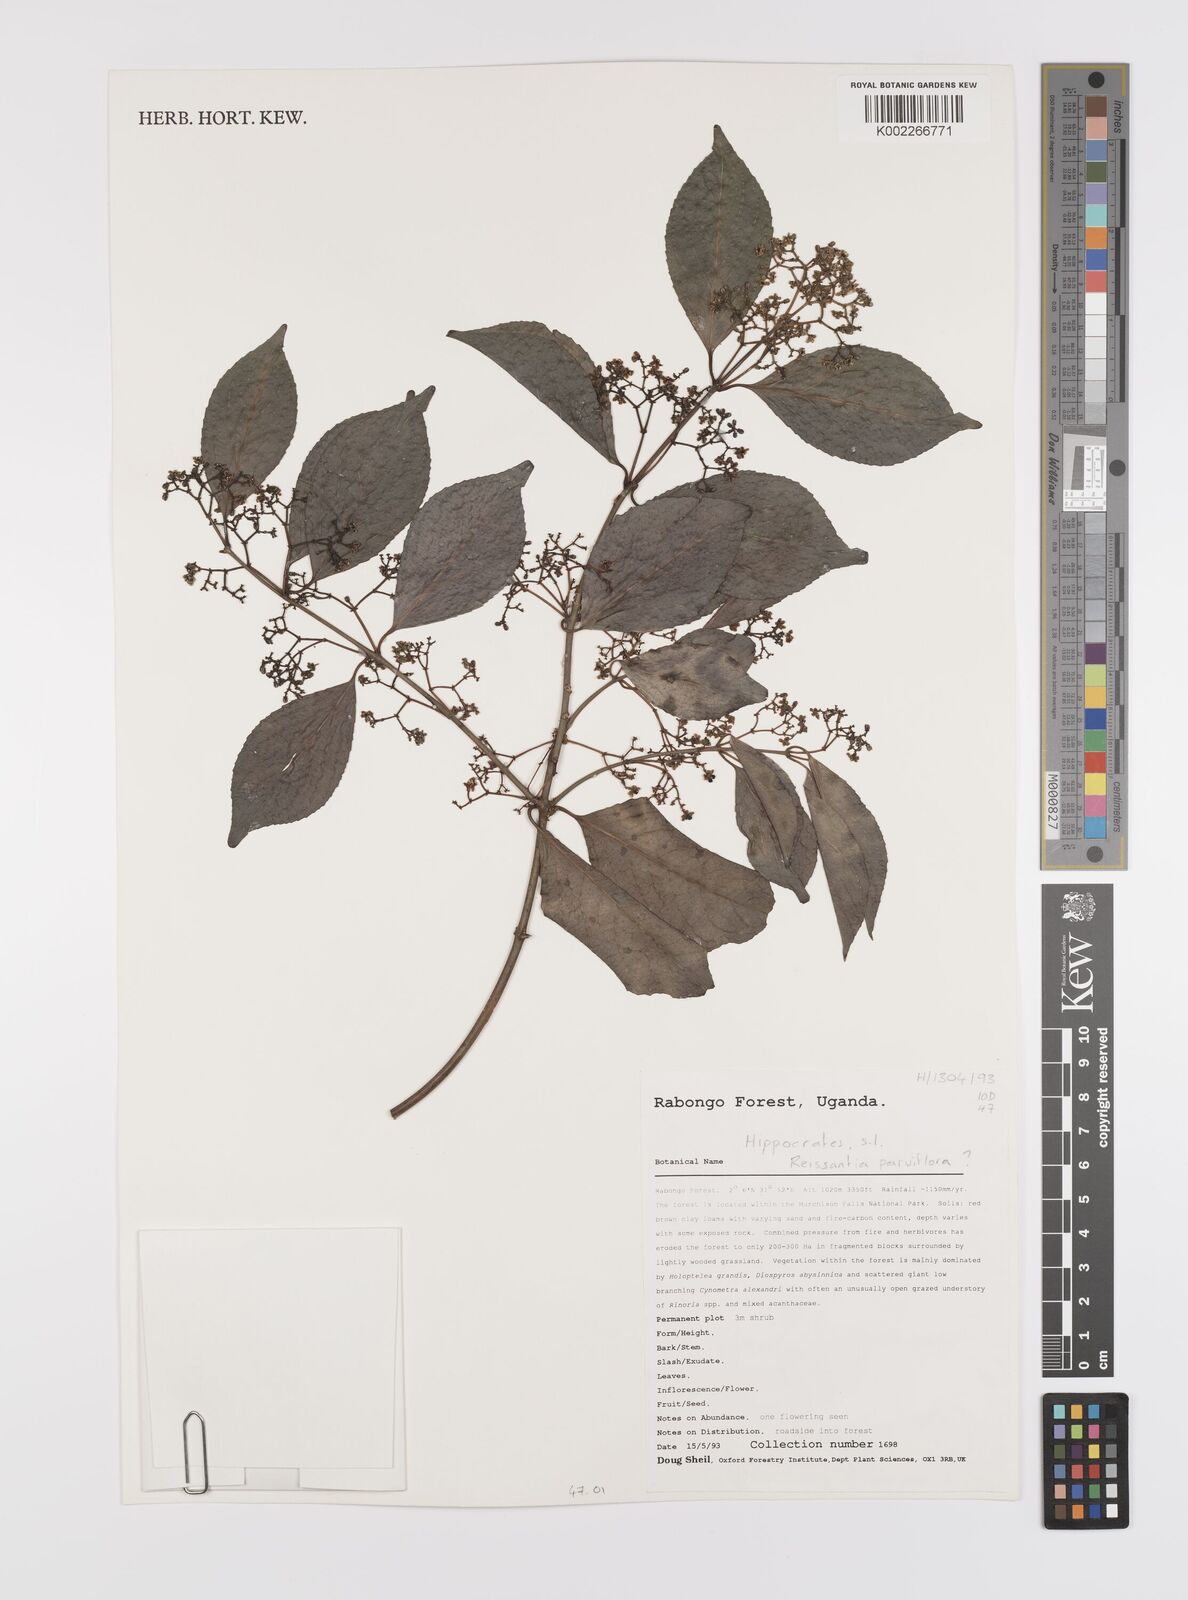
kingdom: Plantae
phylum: Tracheophyta
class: Magnoliopsida
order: Celastrales
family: Celastraceae
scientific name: Celastraceae
